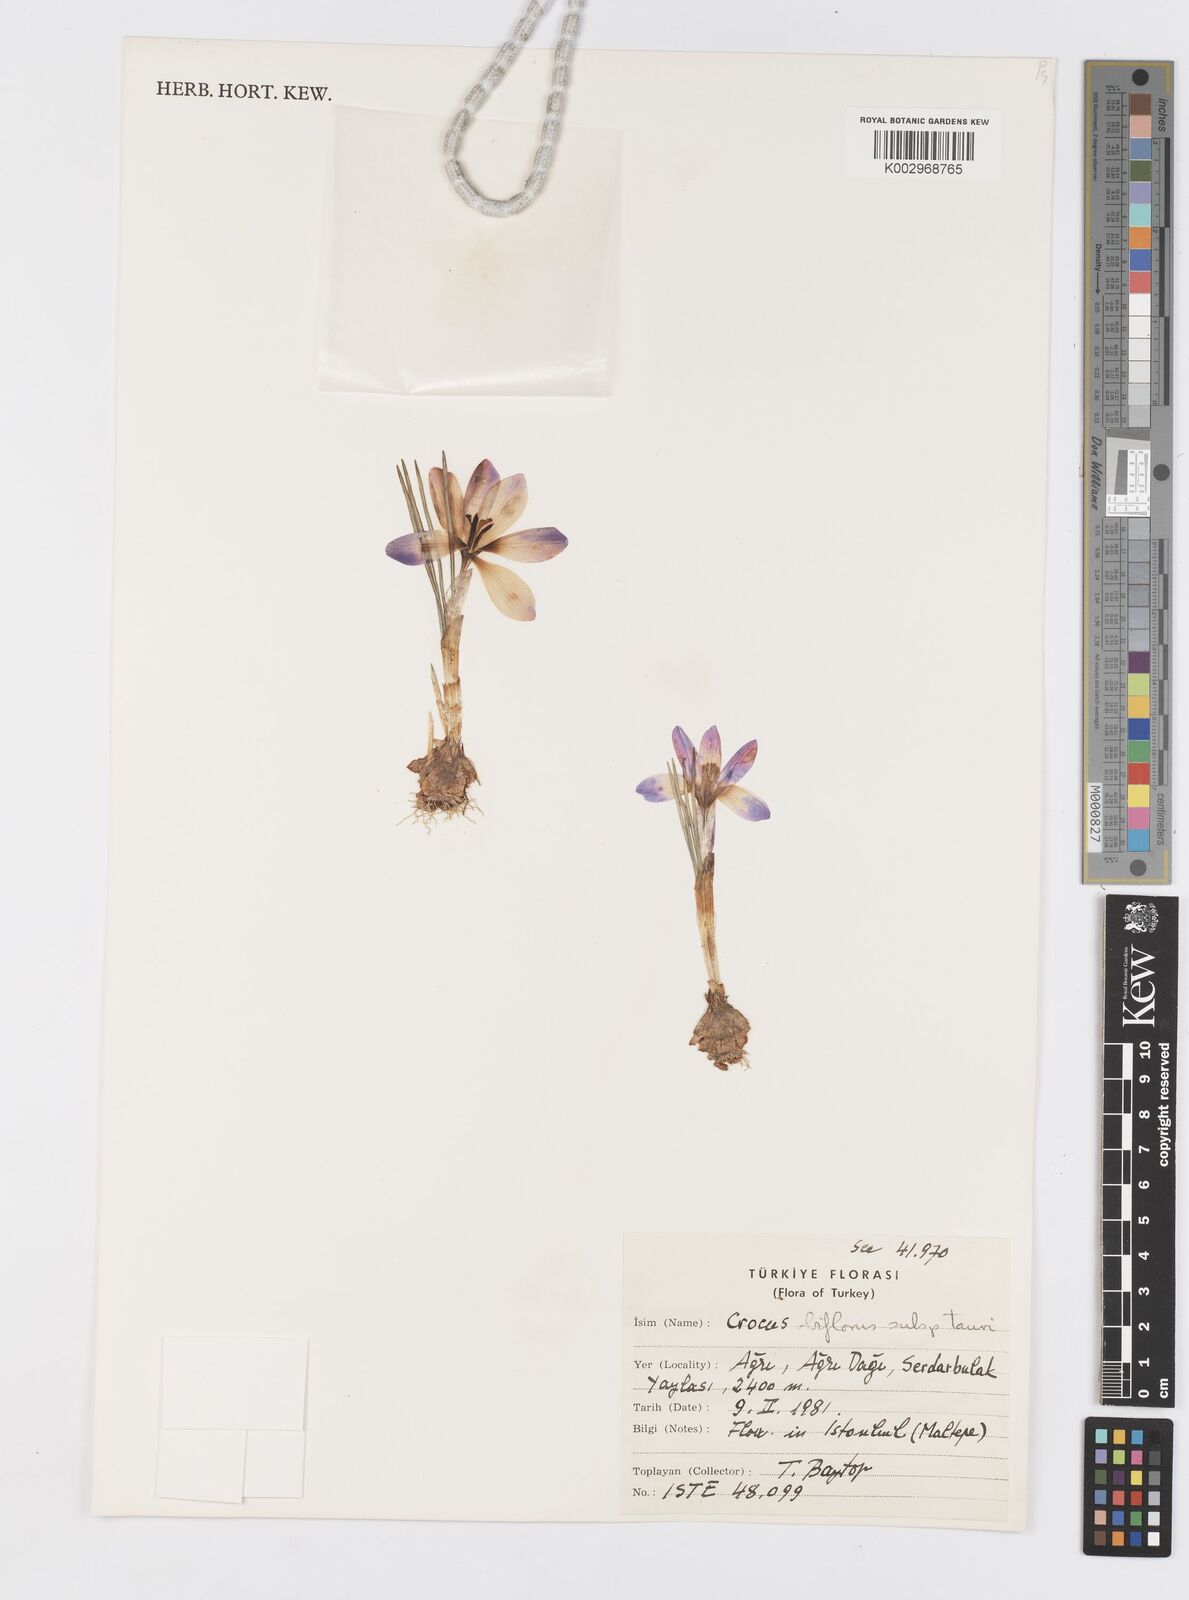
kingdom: Plantae
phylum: Tracheophyta
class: Liliopsida
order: Asparagales
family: Iridaceae
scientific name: Iridaceae
